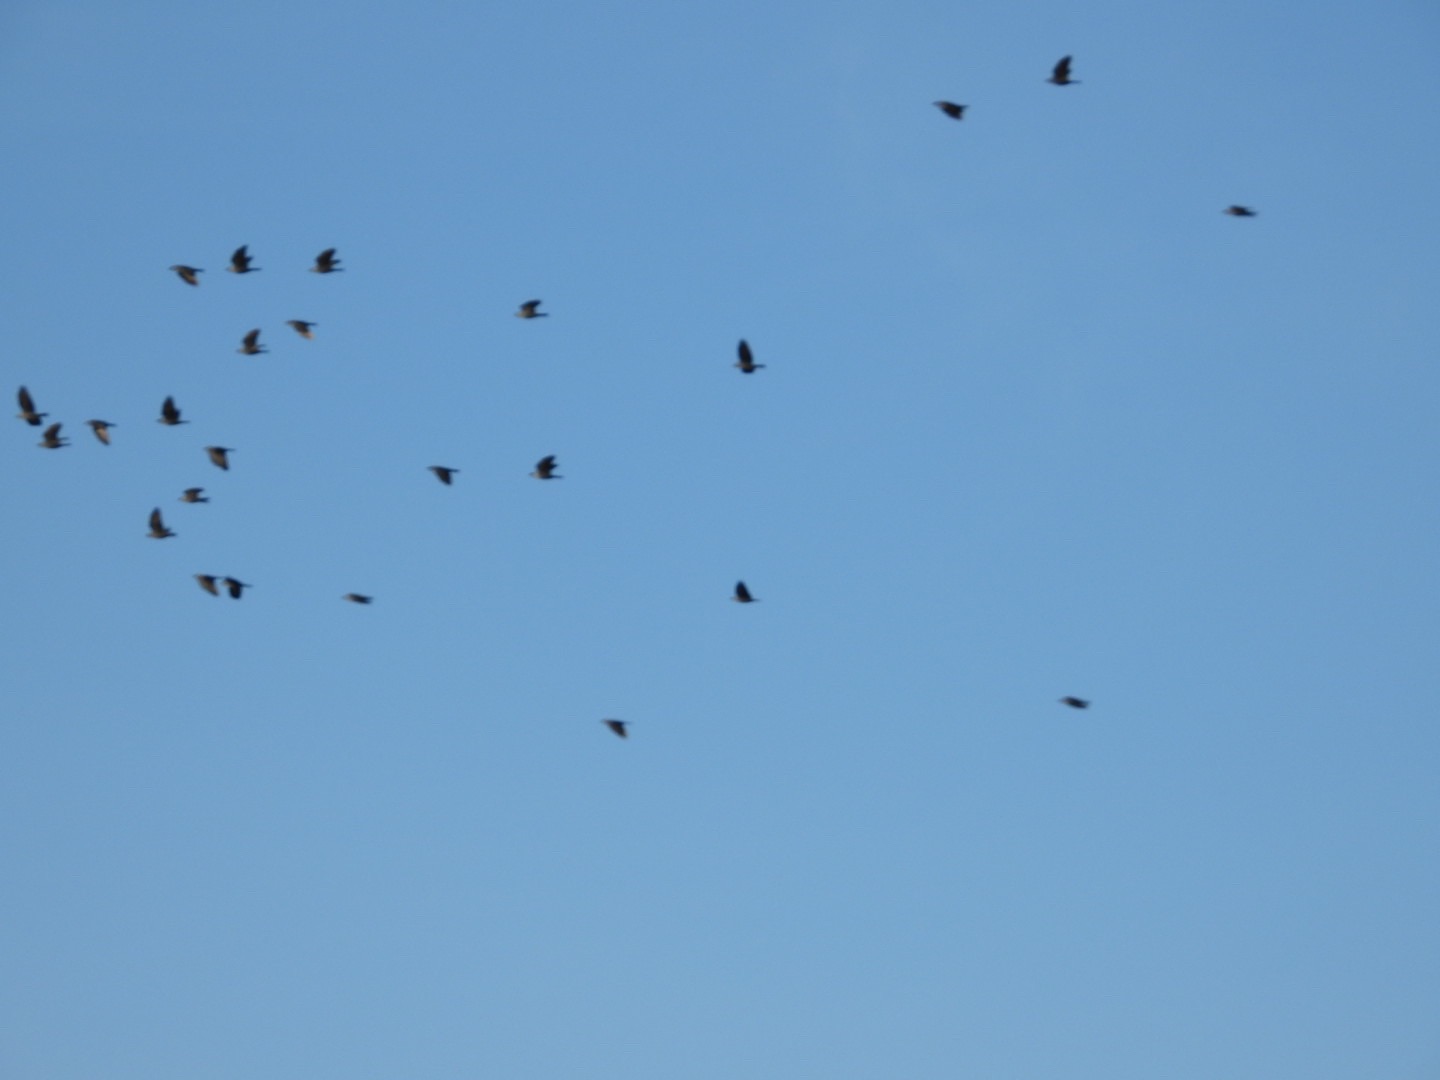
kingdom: Animalia
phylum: Chordata
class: Aves
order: Passeriformes
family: Corvidae
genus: Coloeus
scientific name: Coloeus monedula
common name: Allike
